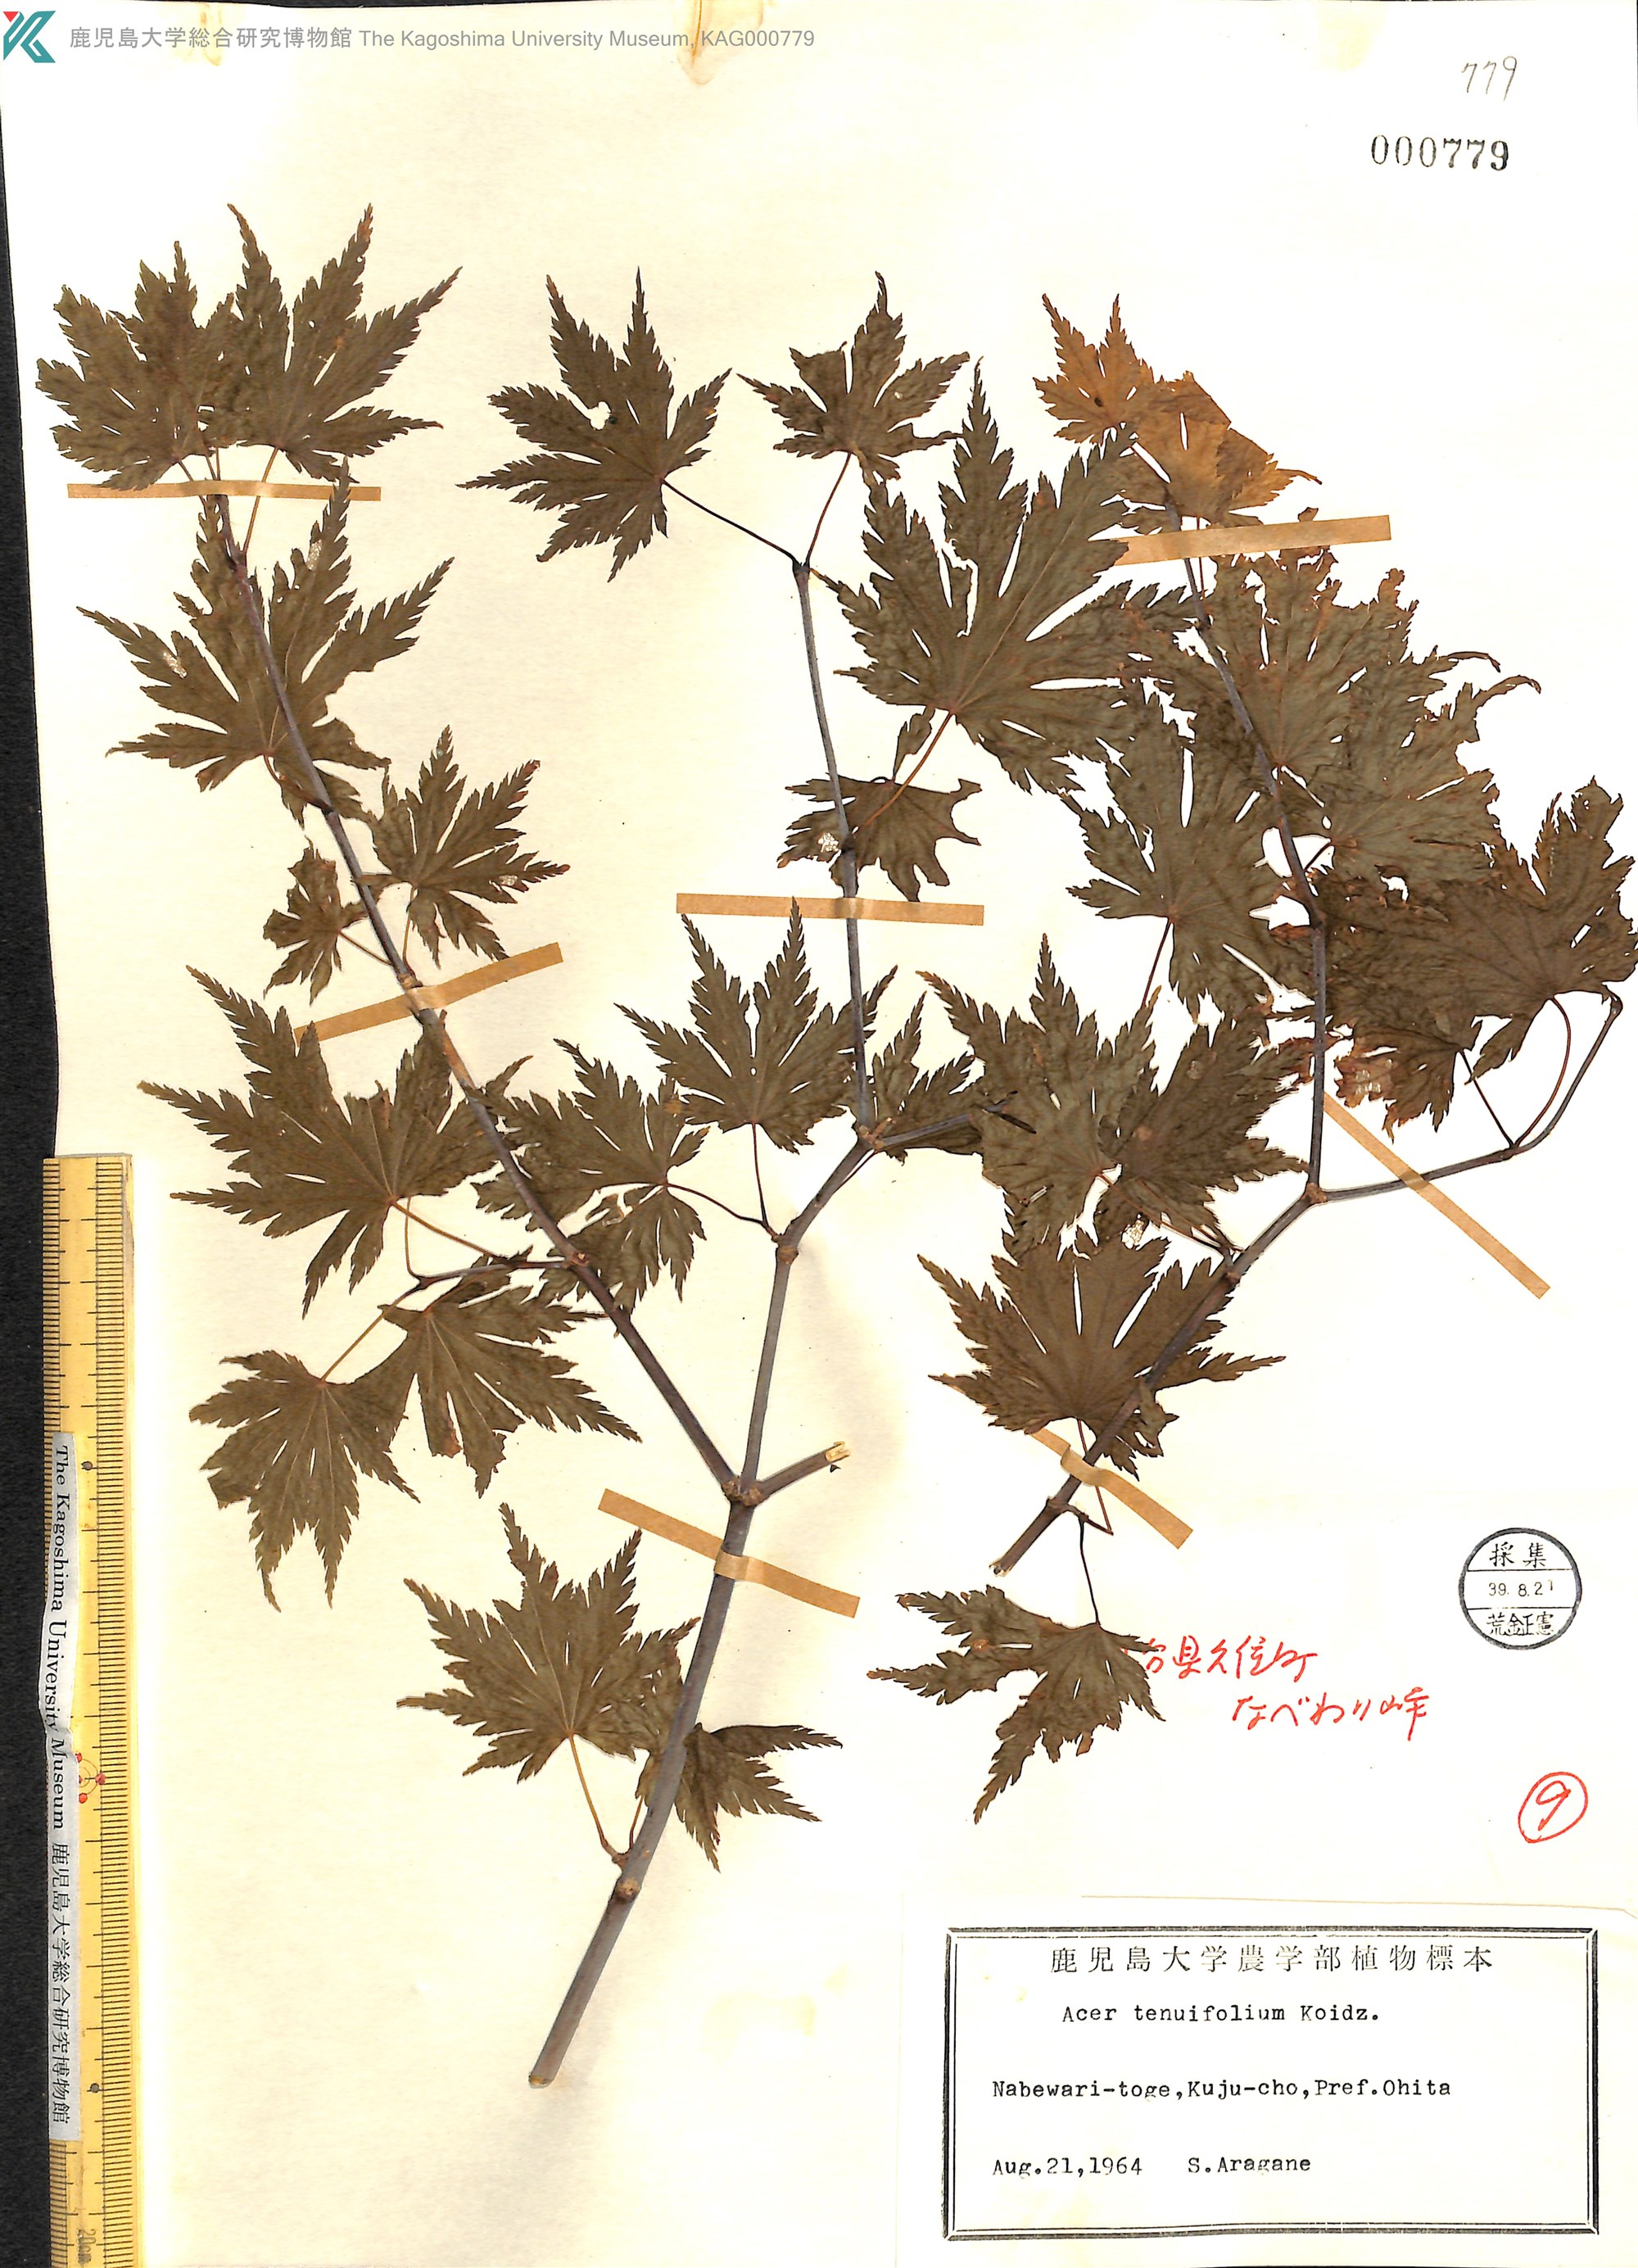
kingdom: Plantae
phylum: Tracheophyta
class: Magnoliopsida
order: Sapindales
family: Sapindaceae
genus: Acer
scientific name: Acer shirasawanum
